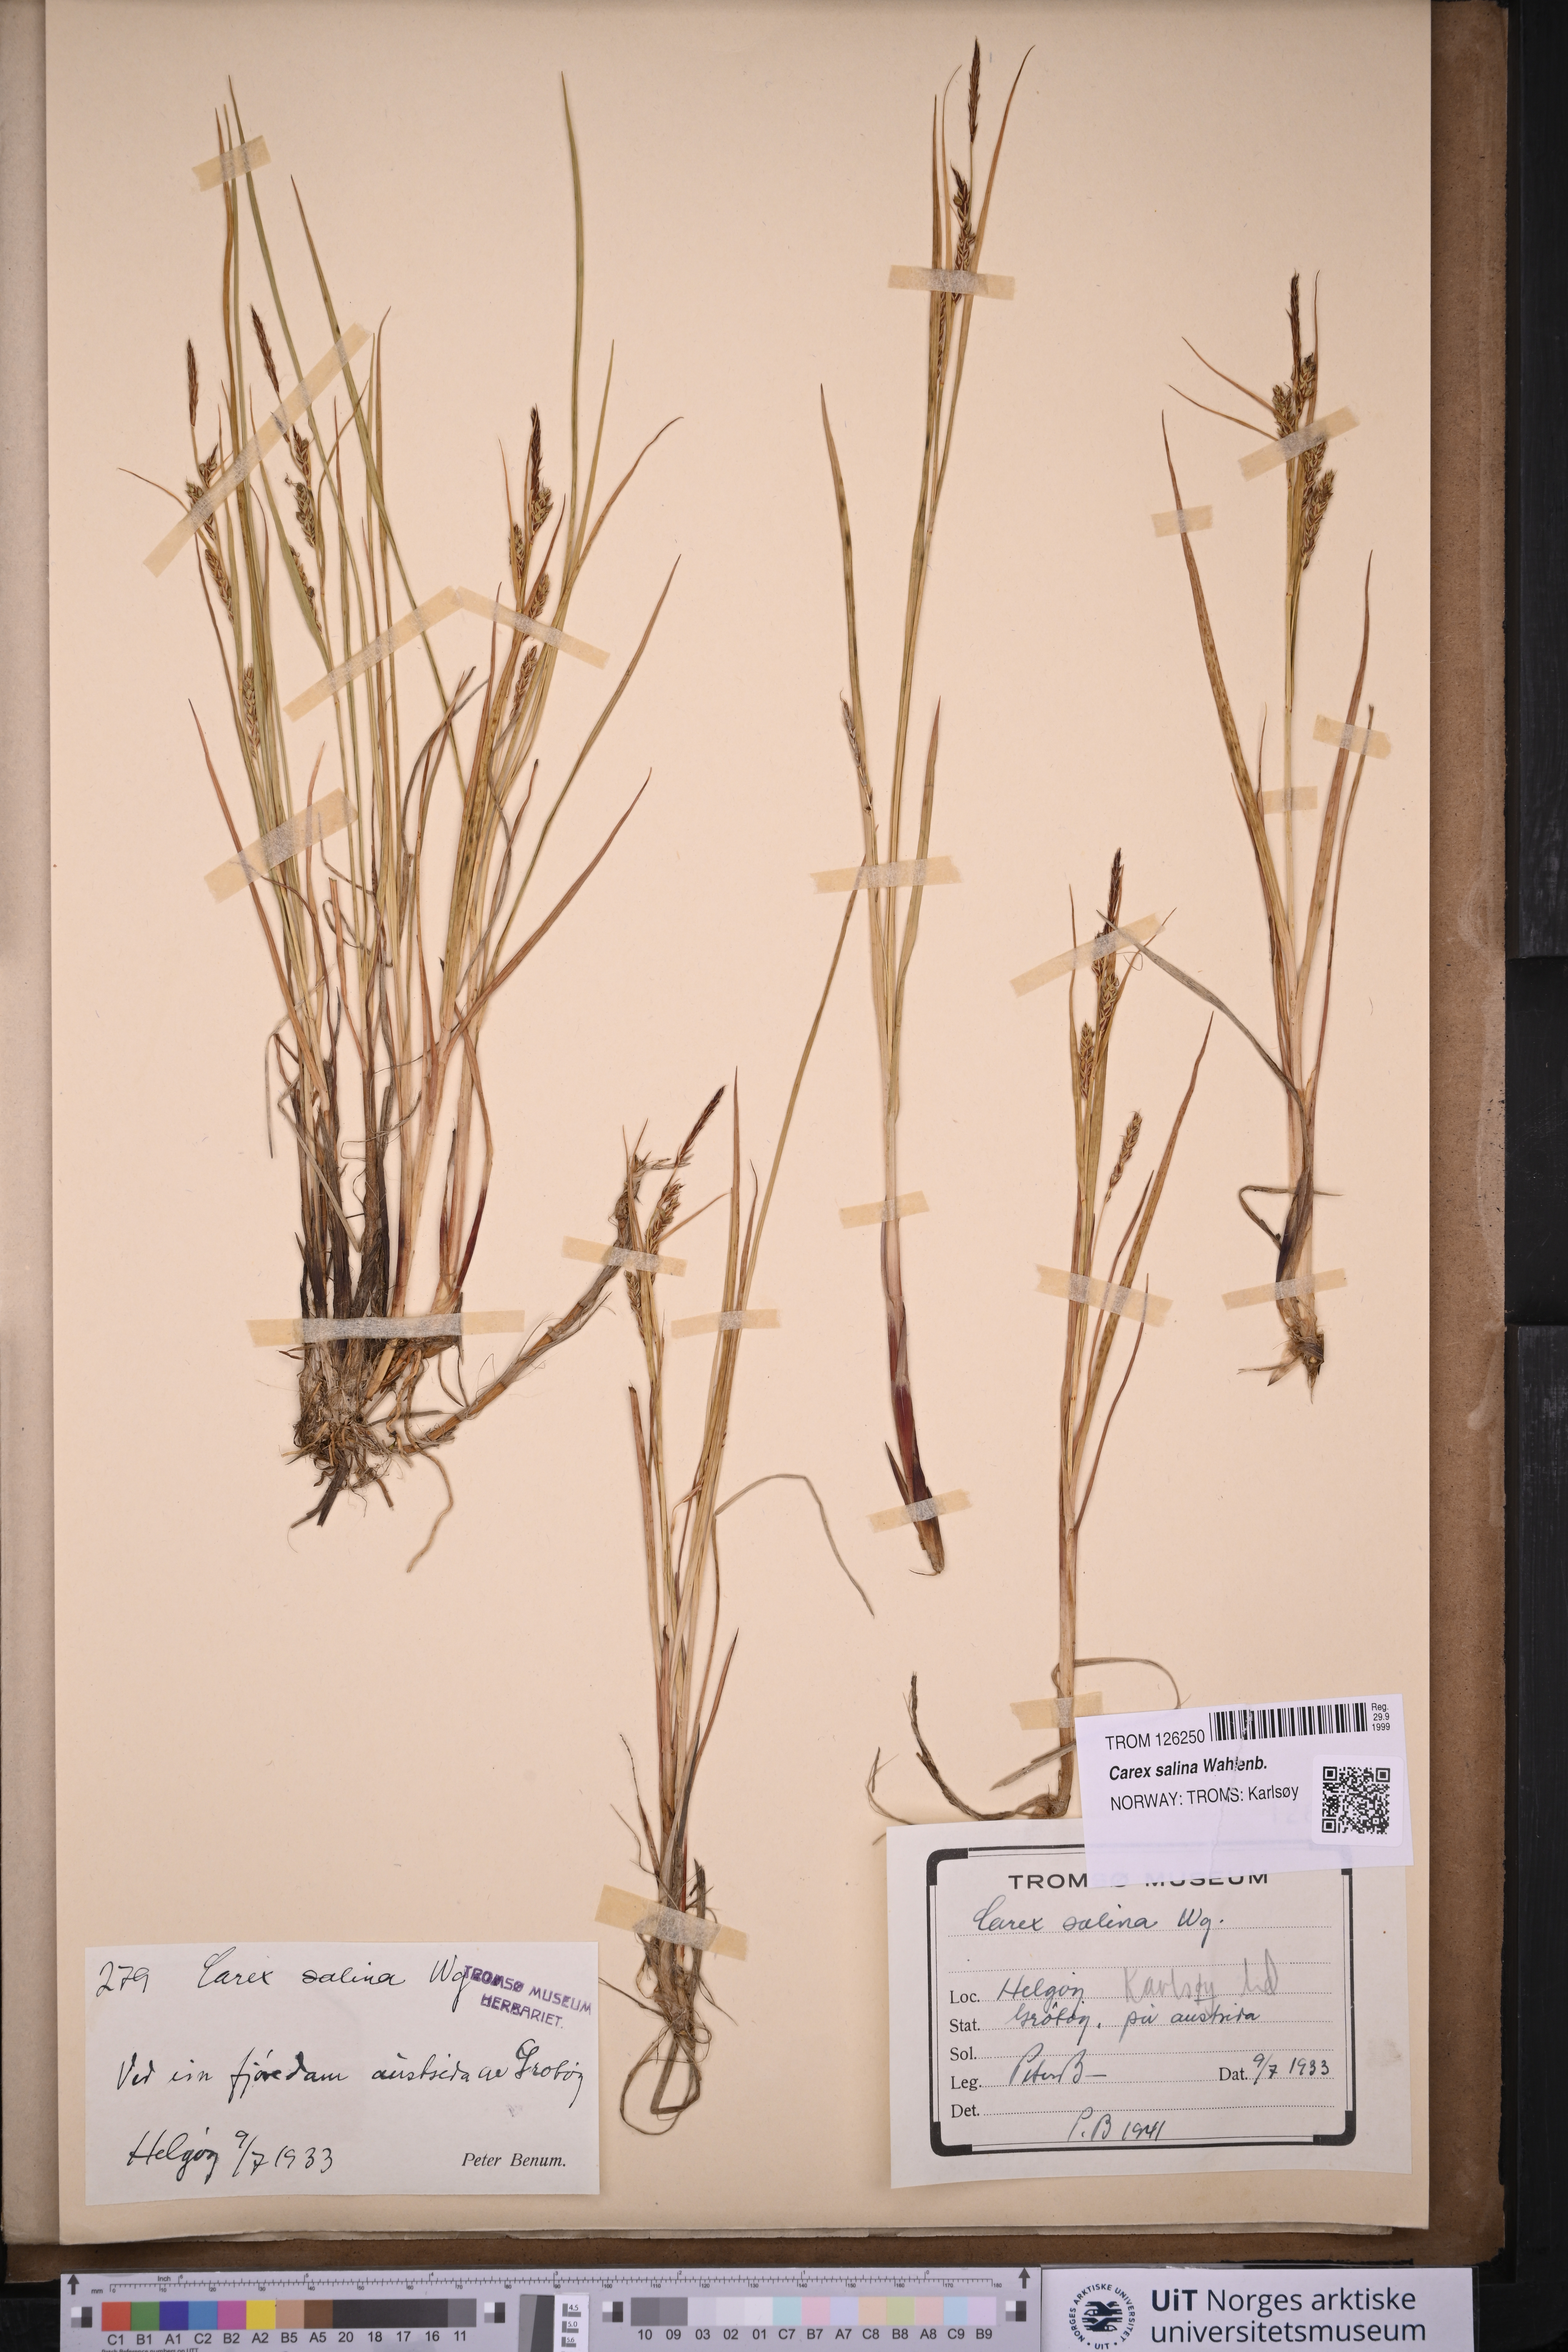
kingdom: Plantae
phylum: Tracheophyta
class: Liliopsida
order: Poales
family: Cyperaceae
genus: Carex
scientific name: Carex salina
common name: Saltmarsh sedge
